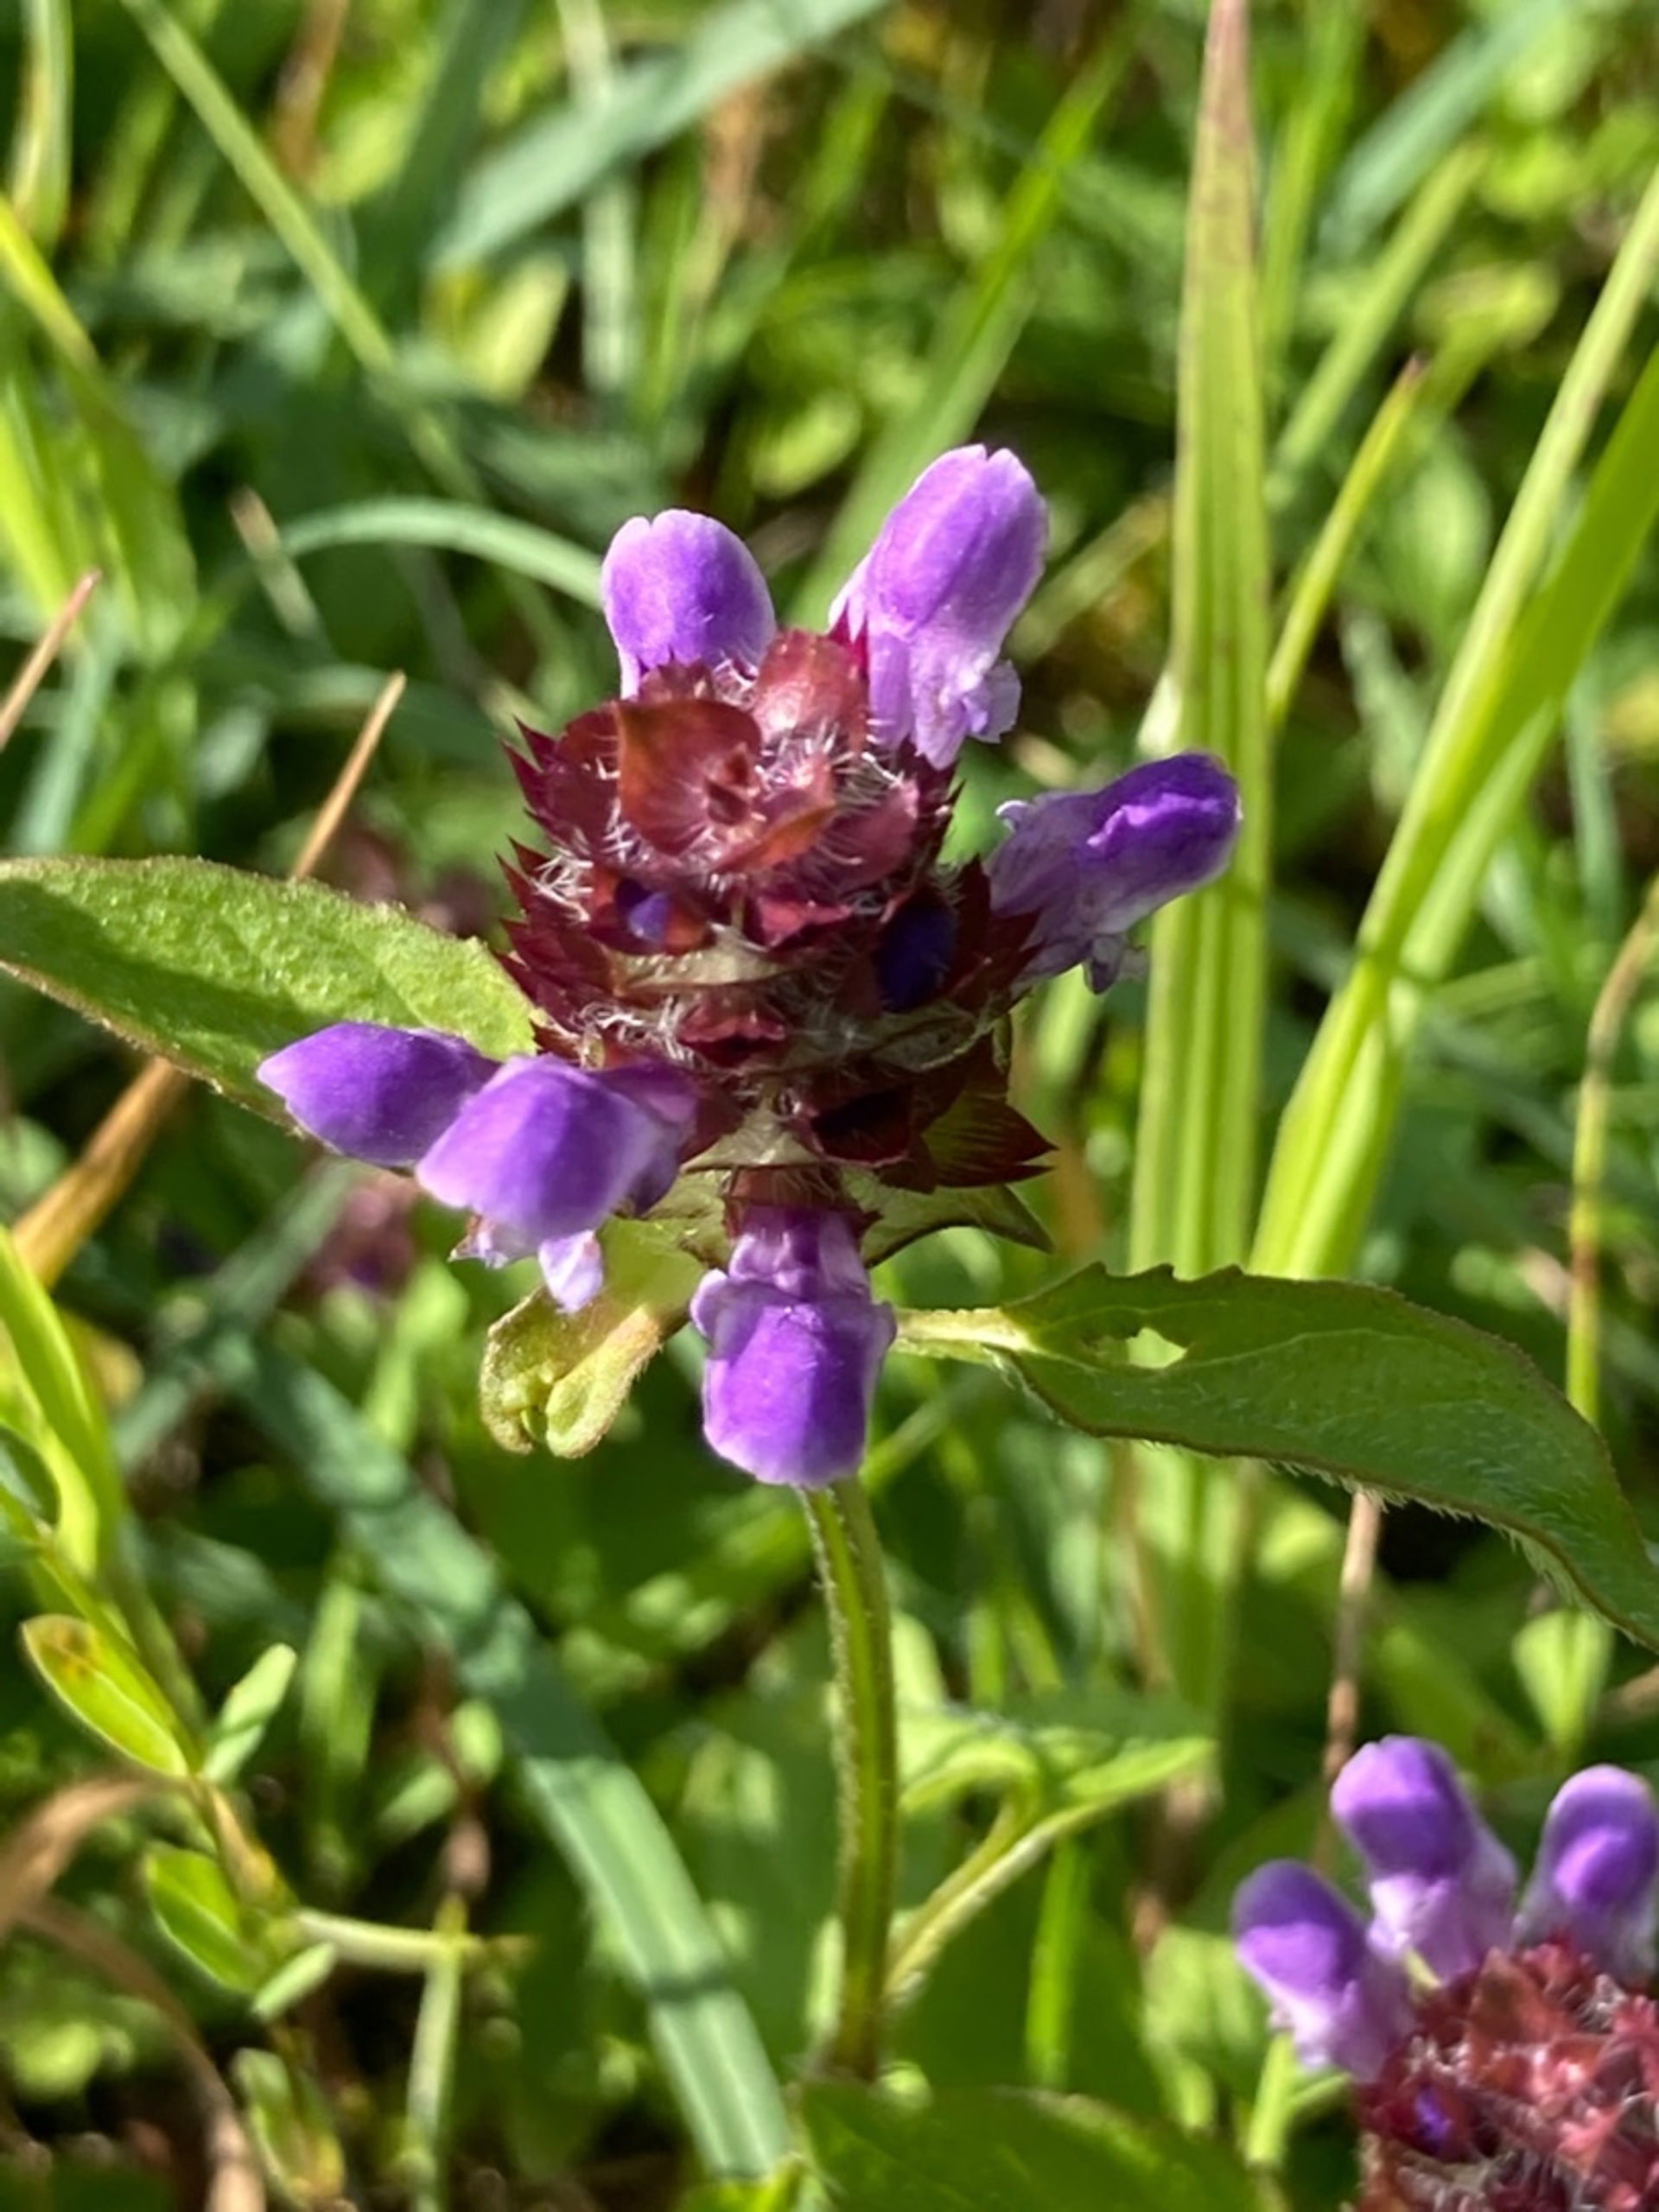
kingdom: Plantae
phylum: Tracheophyta
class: Magnoliopsida
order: Lamiales
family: Lamiaceae
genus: Prunella
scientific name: Prunella vulgaris
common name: Almindelig brunelle
